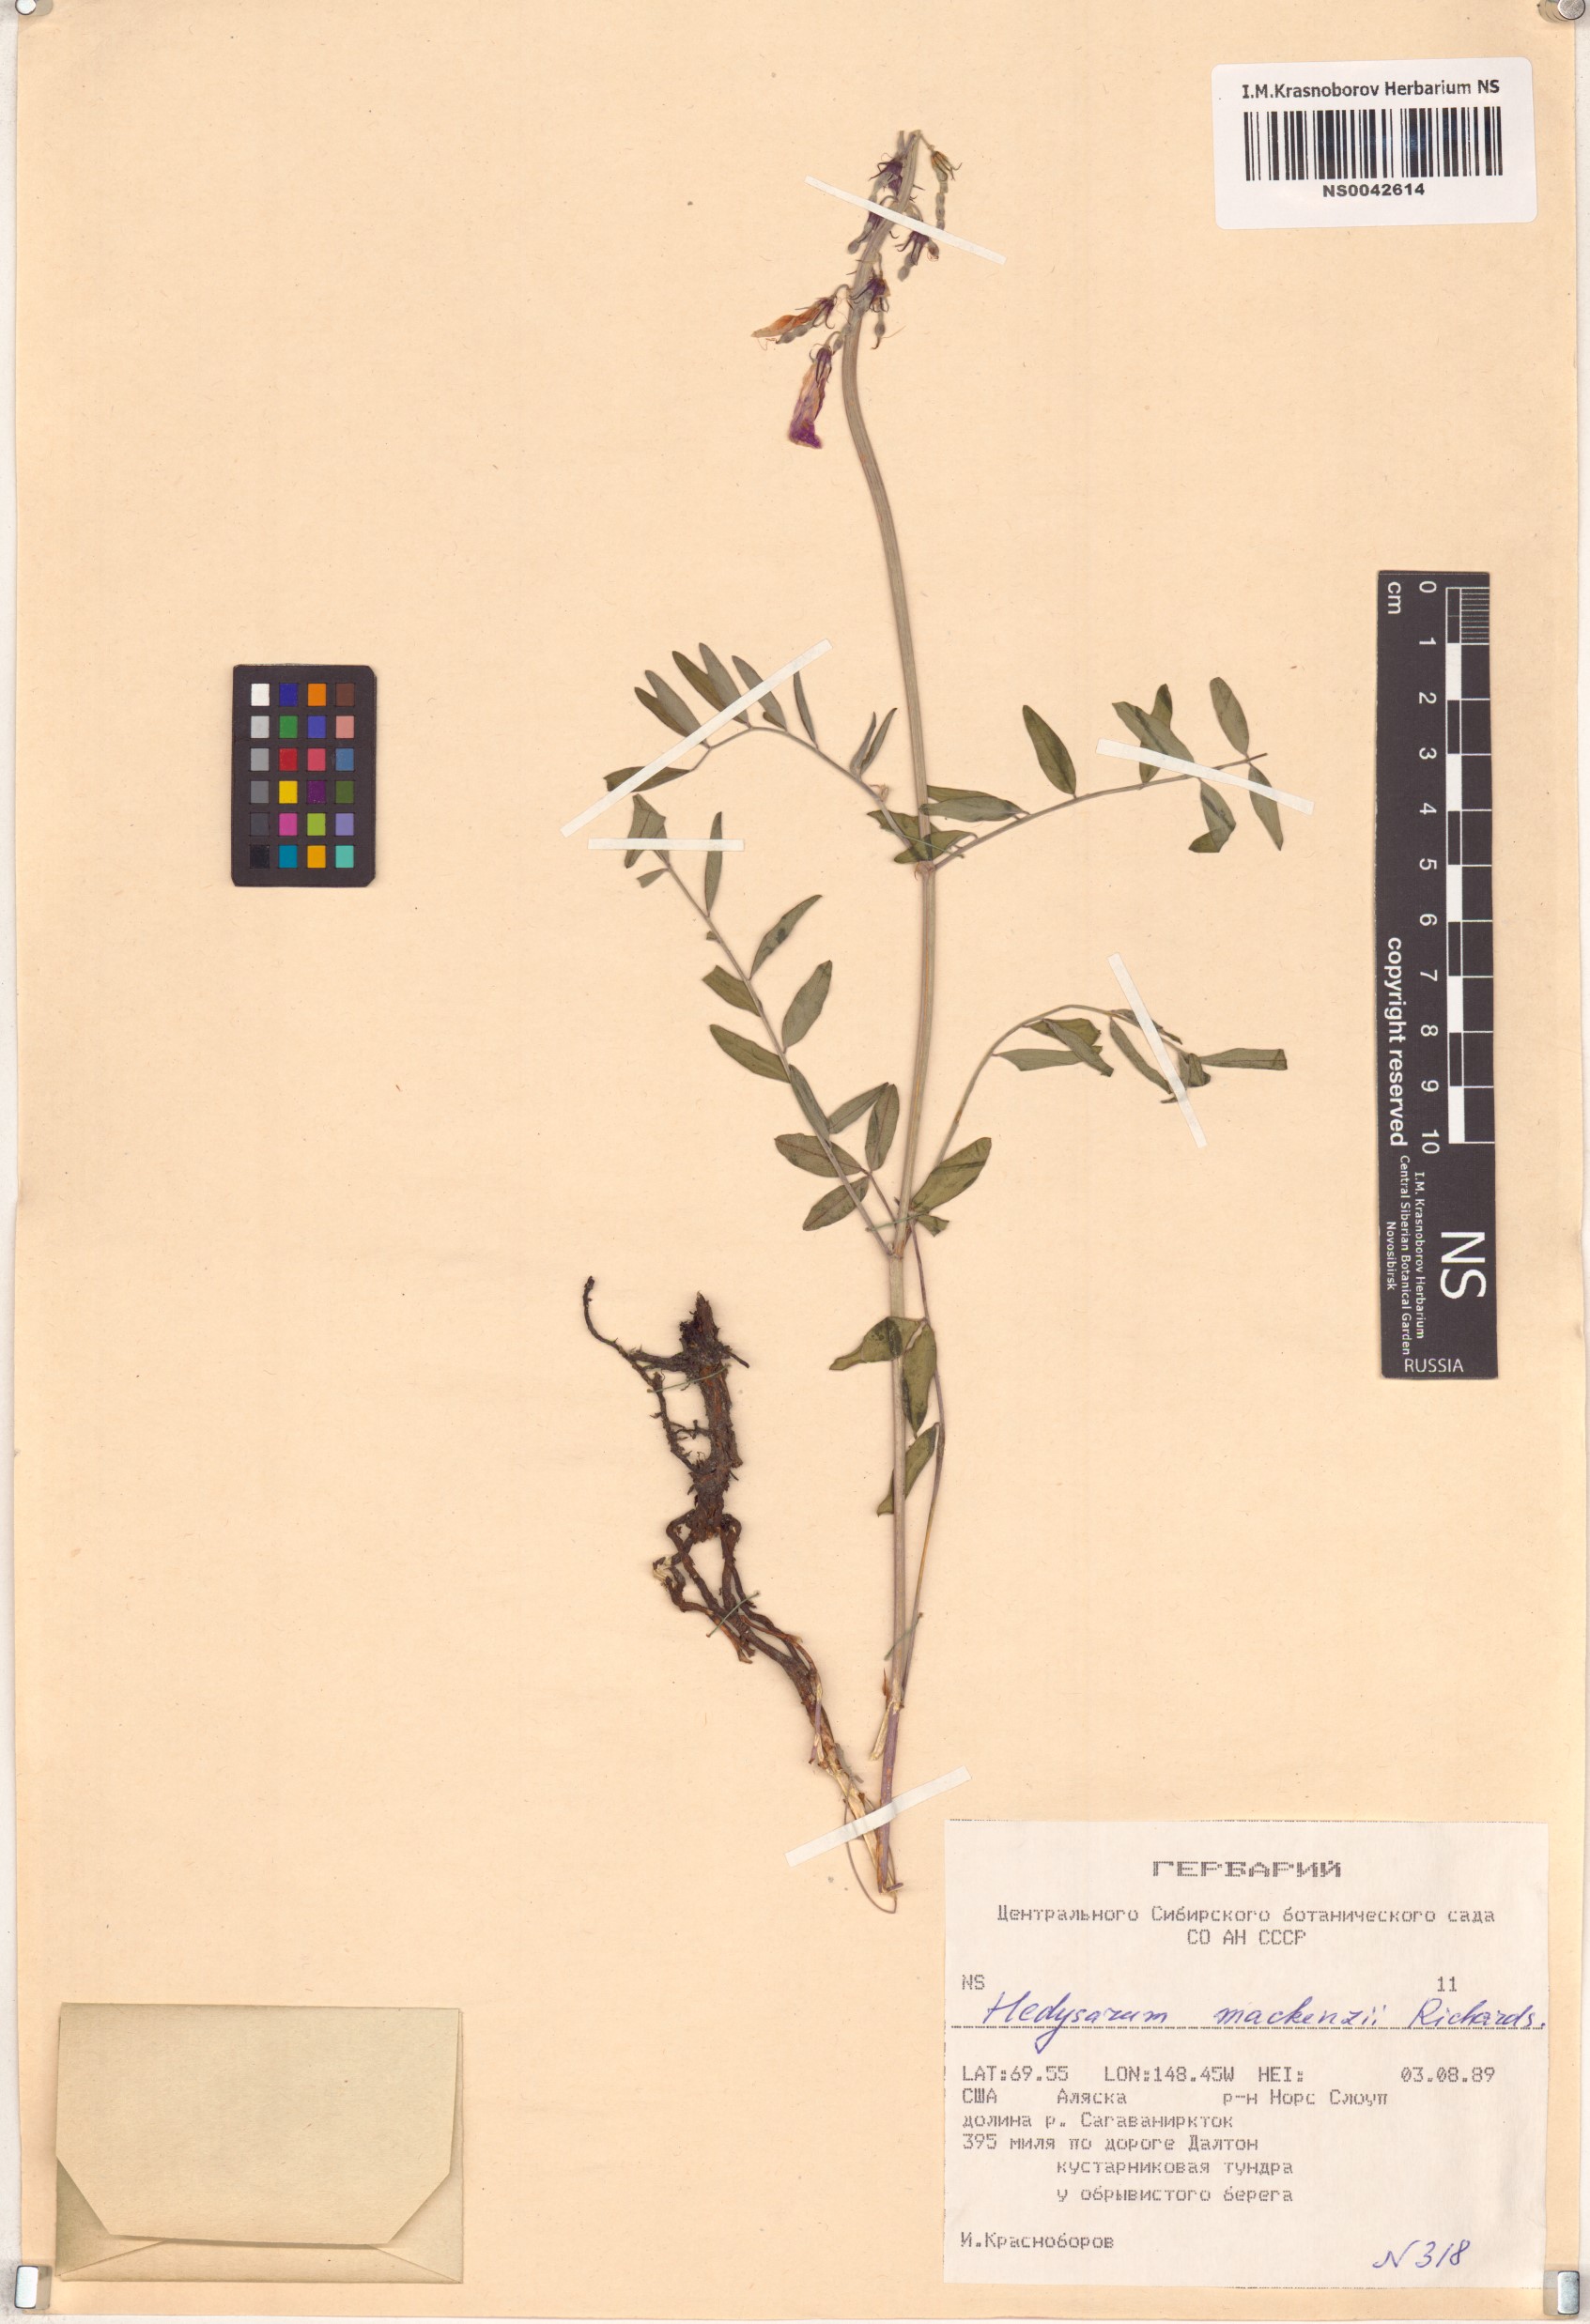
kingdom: Plantae
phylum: Tracheophyta
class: Magnoliopsida
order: Fabales
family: Fabaceae
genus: Hedysarum
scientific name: Hedysarum boreale
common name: Northern sweet-vetch
